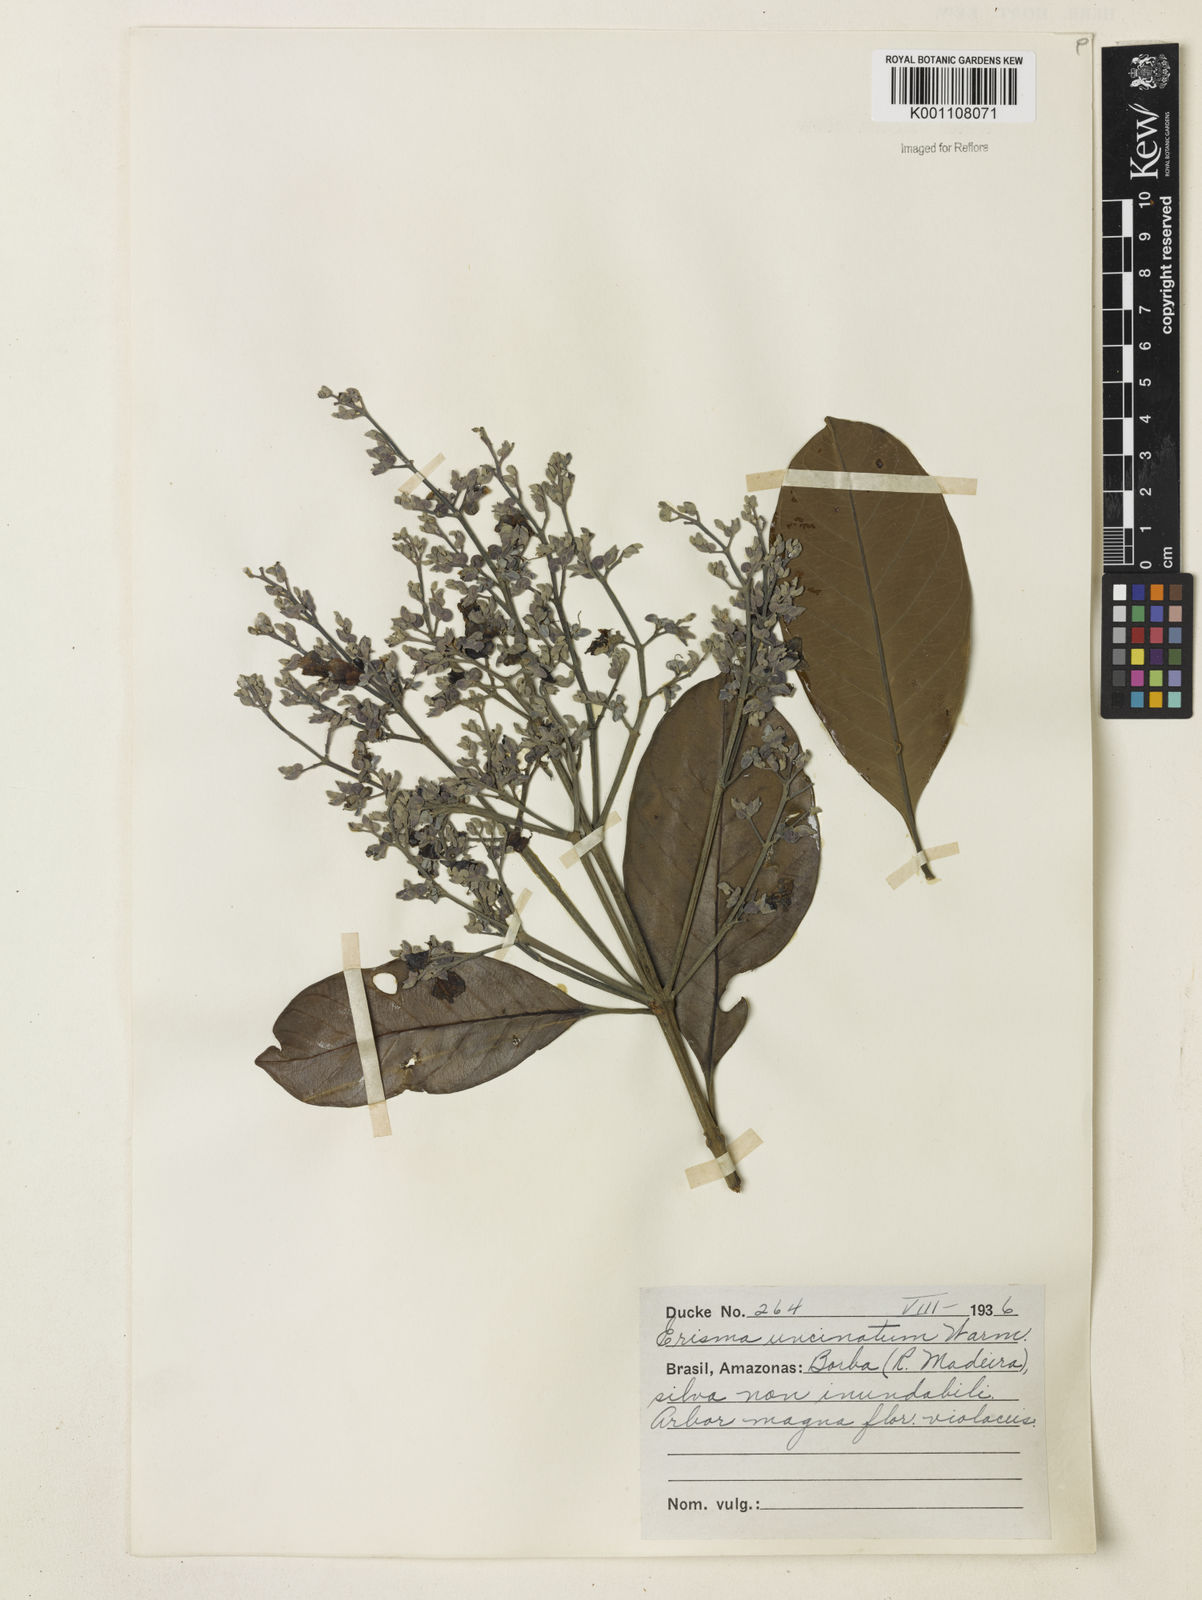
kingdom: Plantae
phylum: Tracheophyta
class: Magnoliopsida
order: Myrtales
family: Vochysiaceae
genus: Erisma
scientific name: Erisma uncinatum
